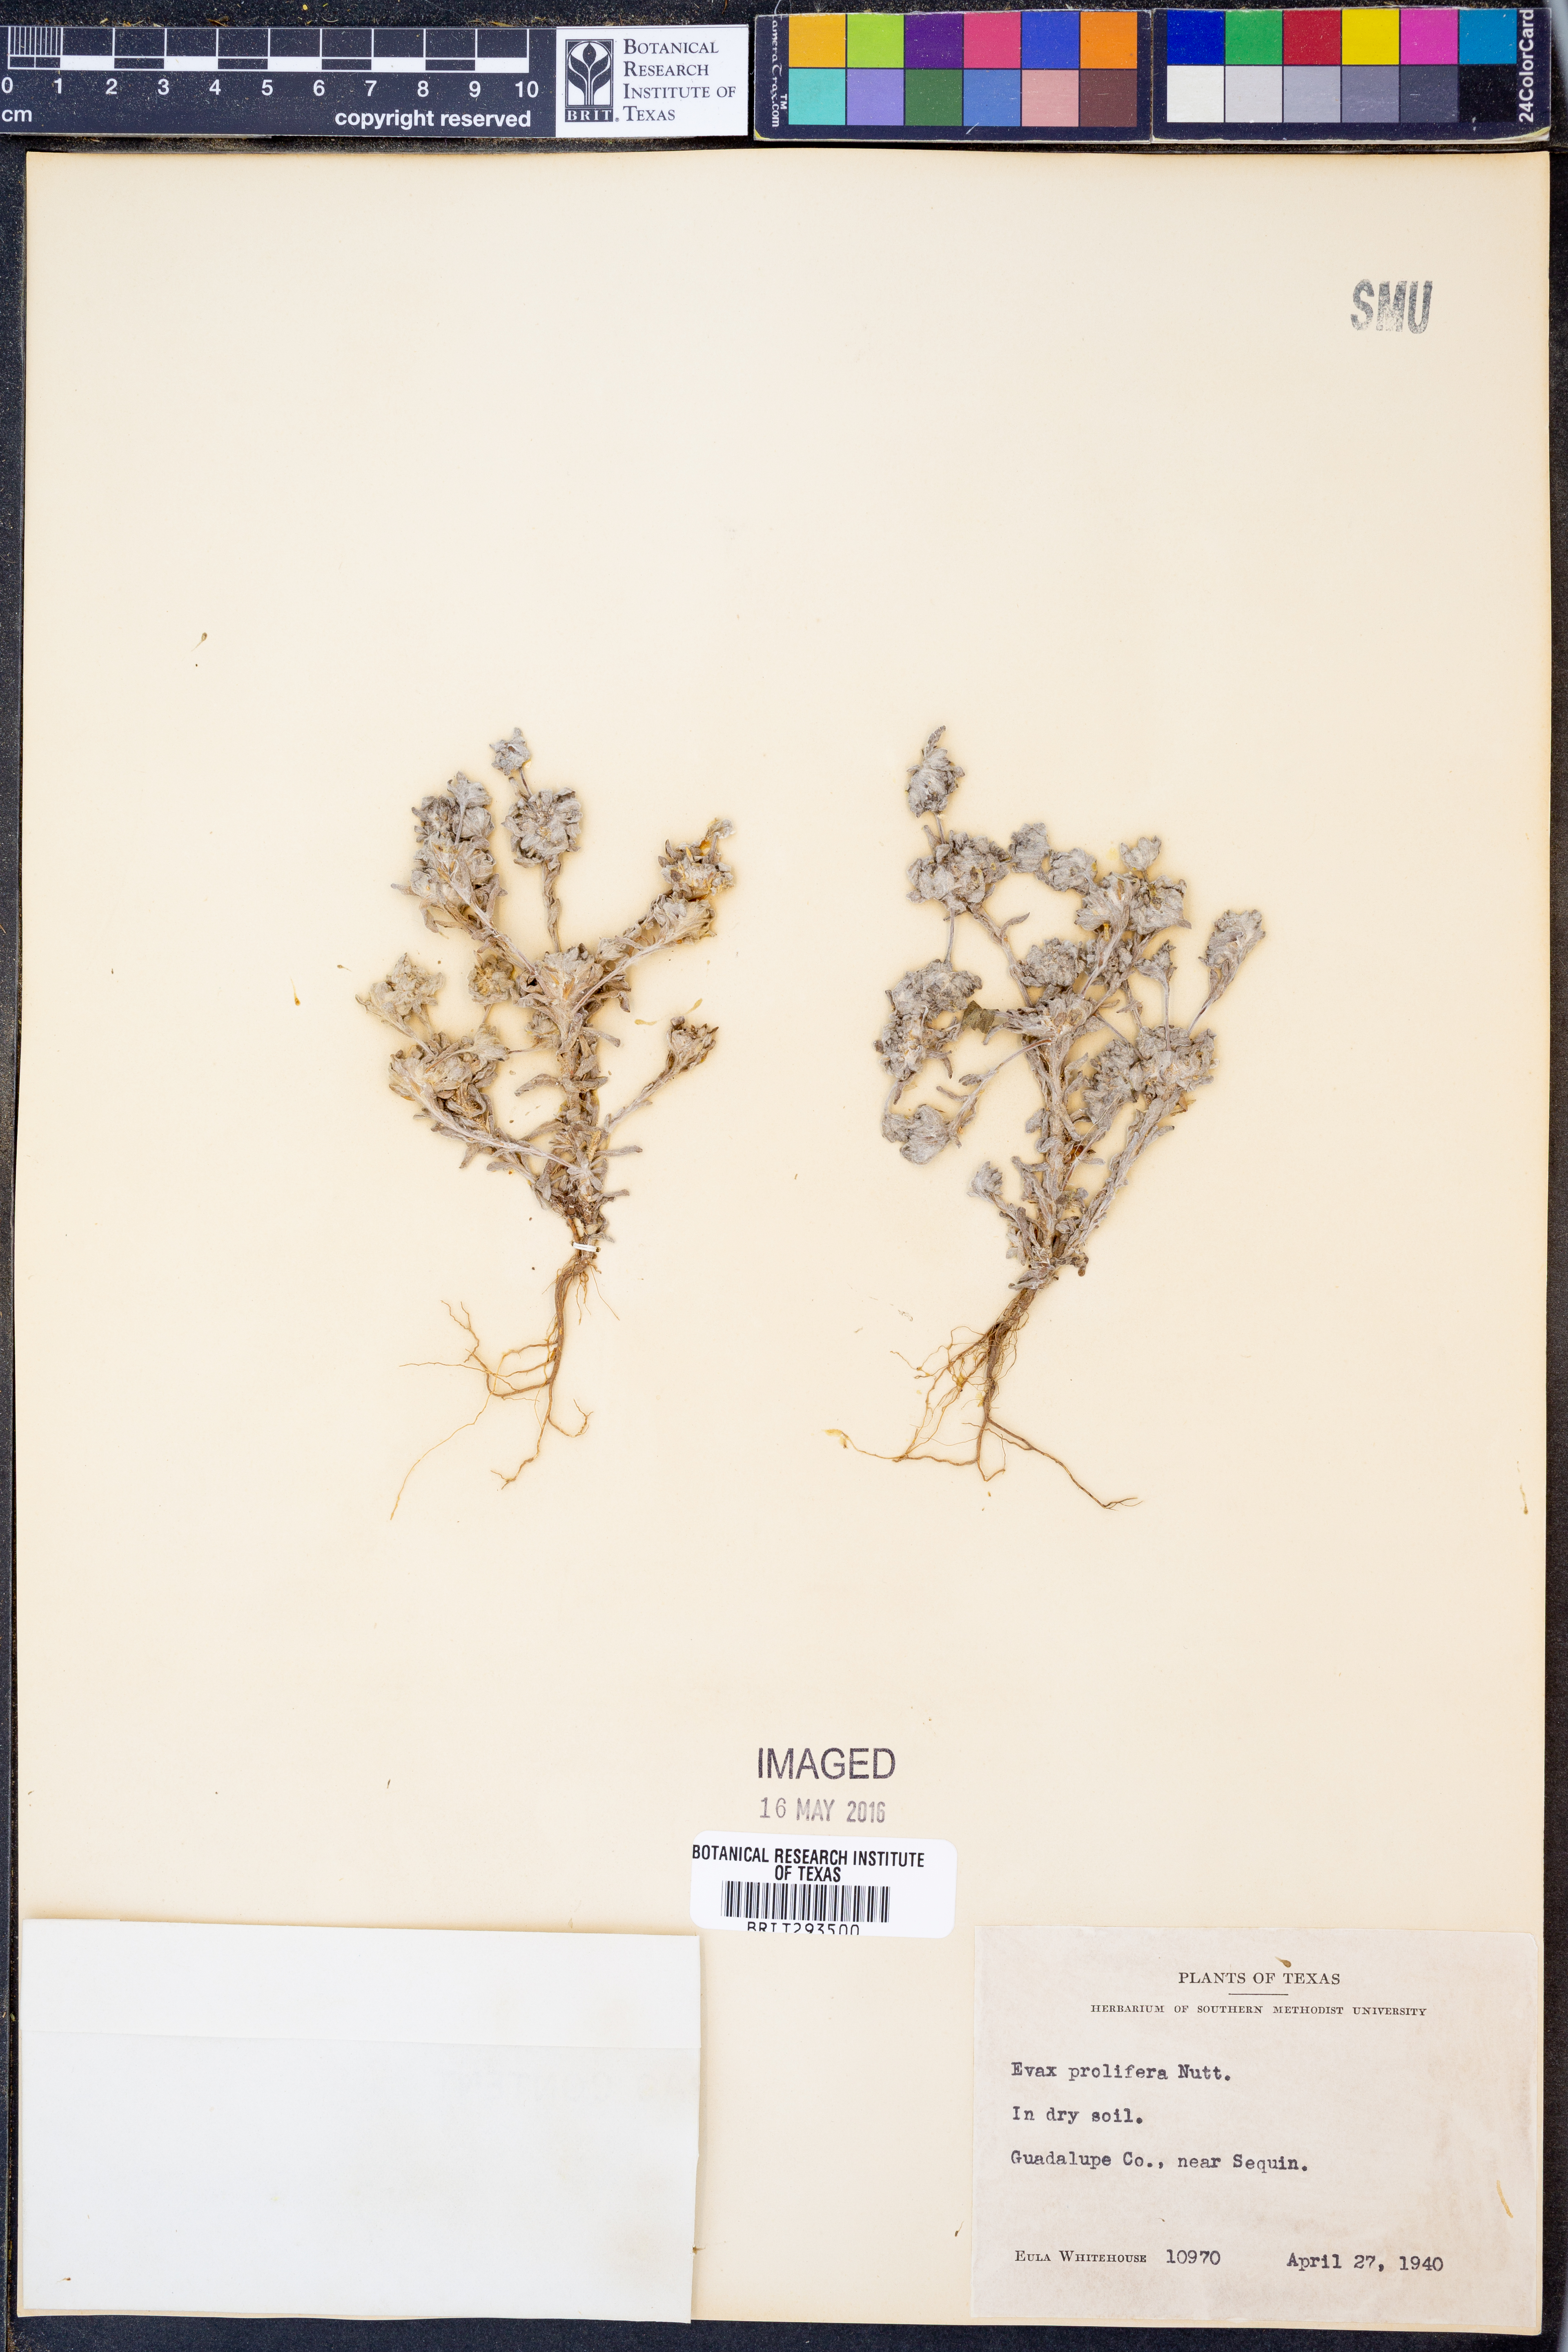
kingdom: Plantae
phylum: Tracheophyta
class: Magnoliopsida
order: Asterales
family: Asteraceae
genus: Diaperia
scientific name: Diaperia prolifera
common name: Big-head rabbit-tobacco
